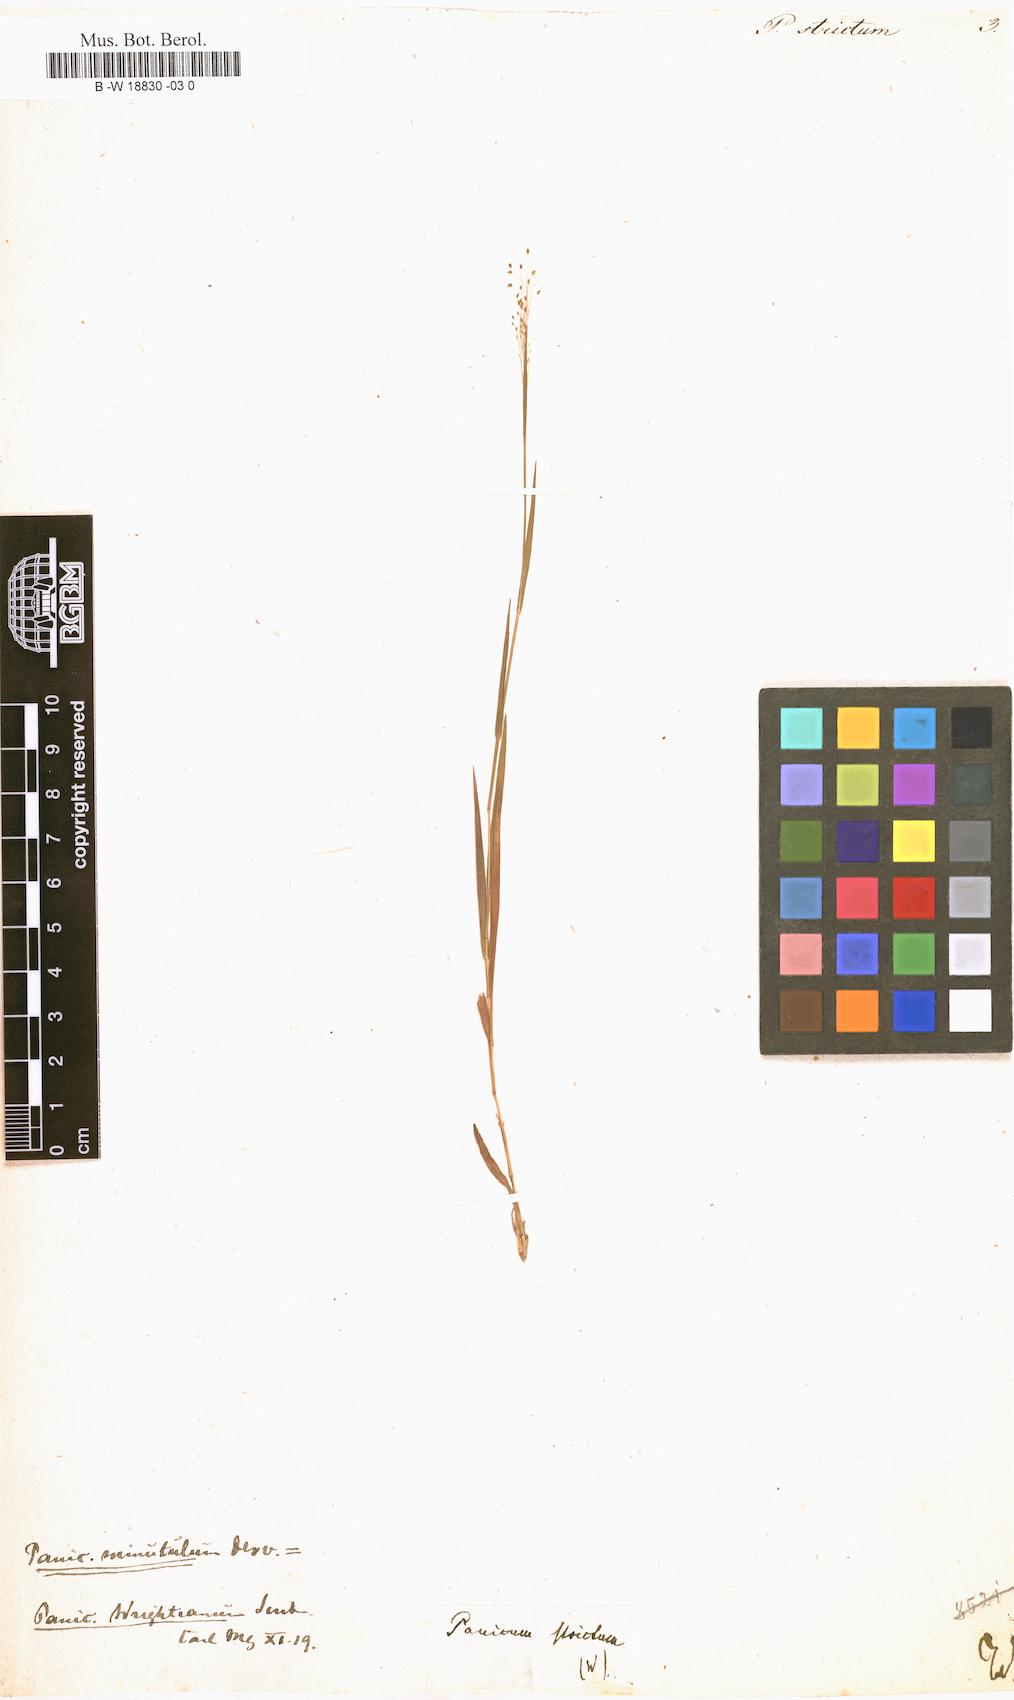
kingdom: Plantae
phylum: Tracheophyta
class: Liliopsida
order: Poales
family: Poaceae
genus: Entolasia
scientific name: Entolasia stricta
